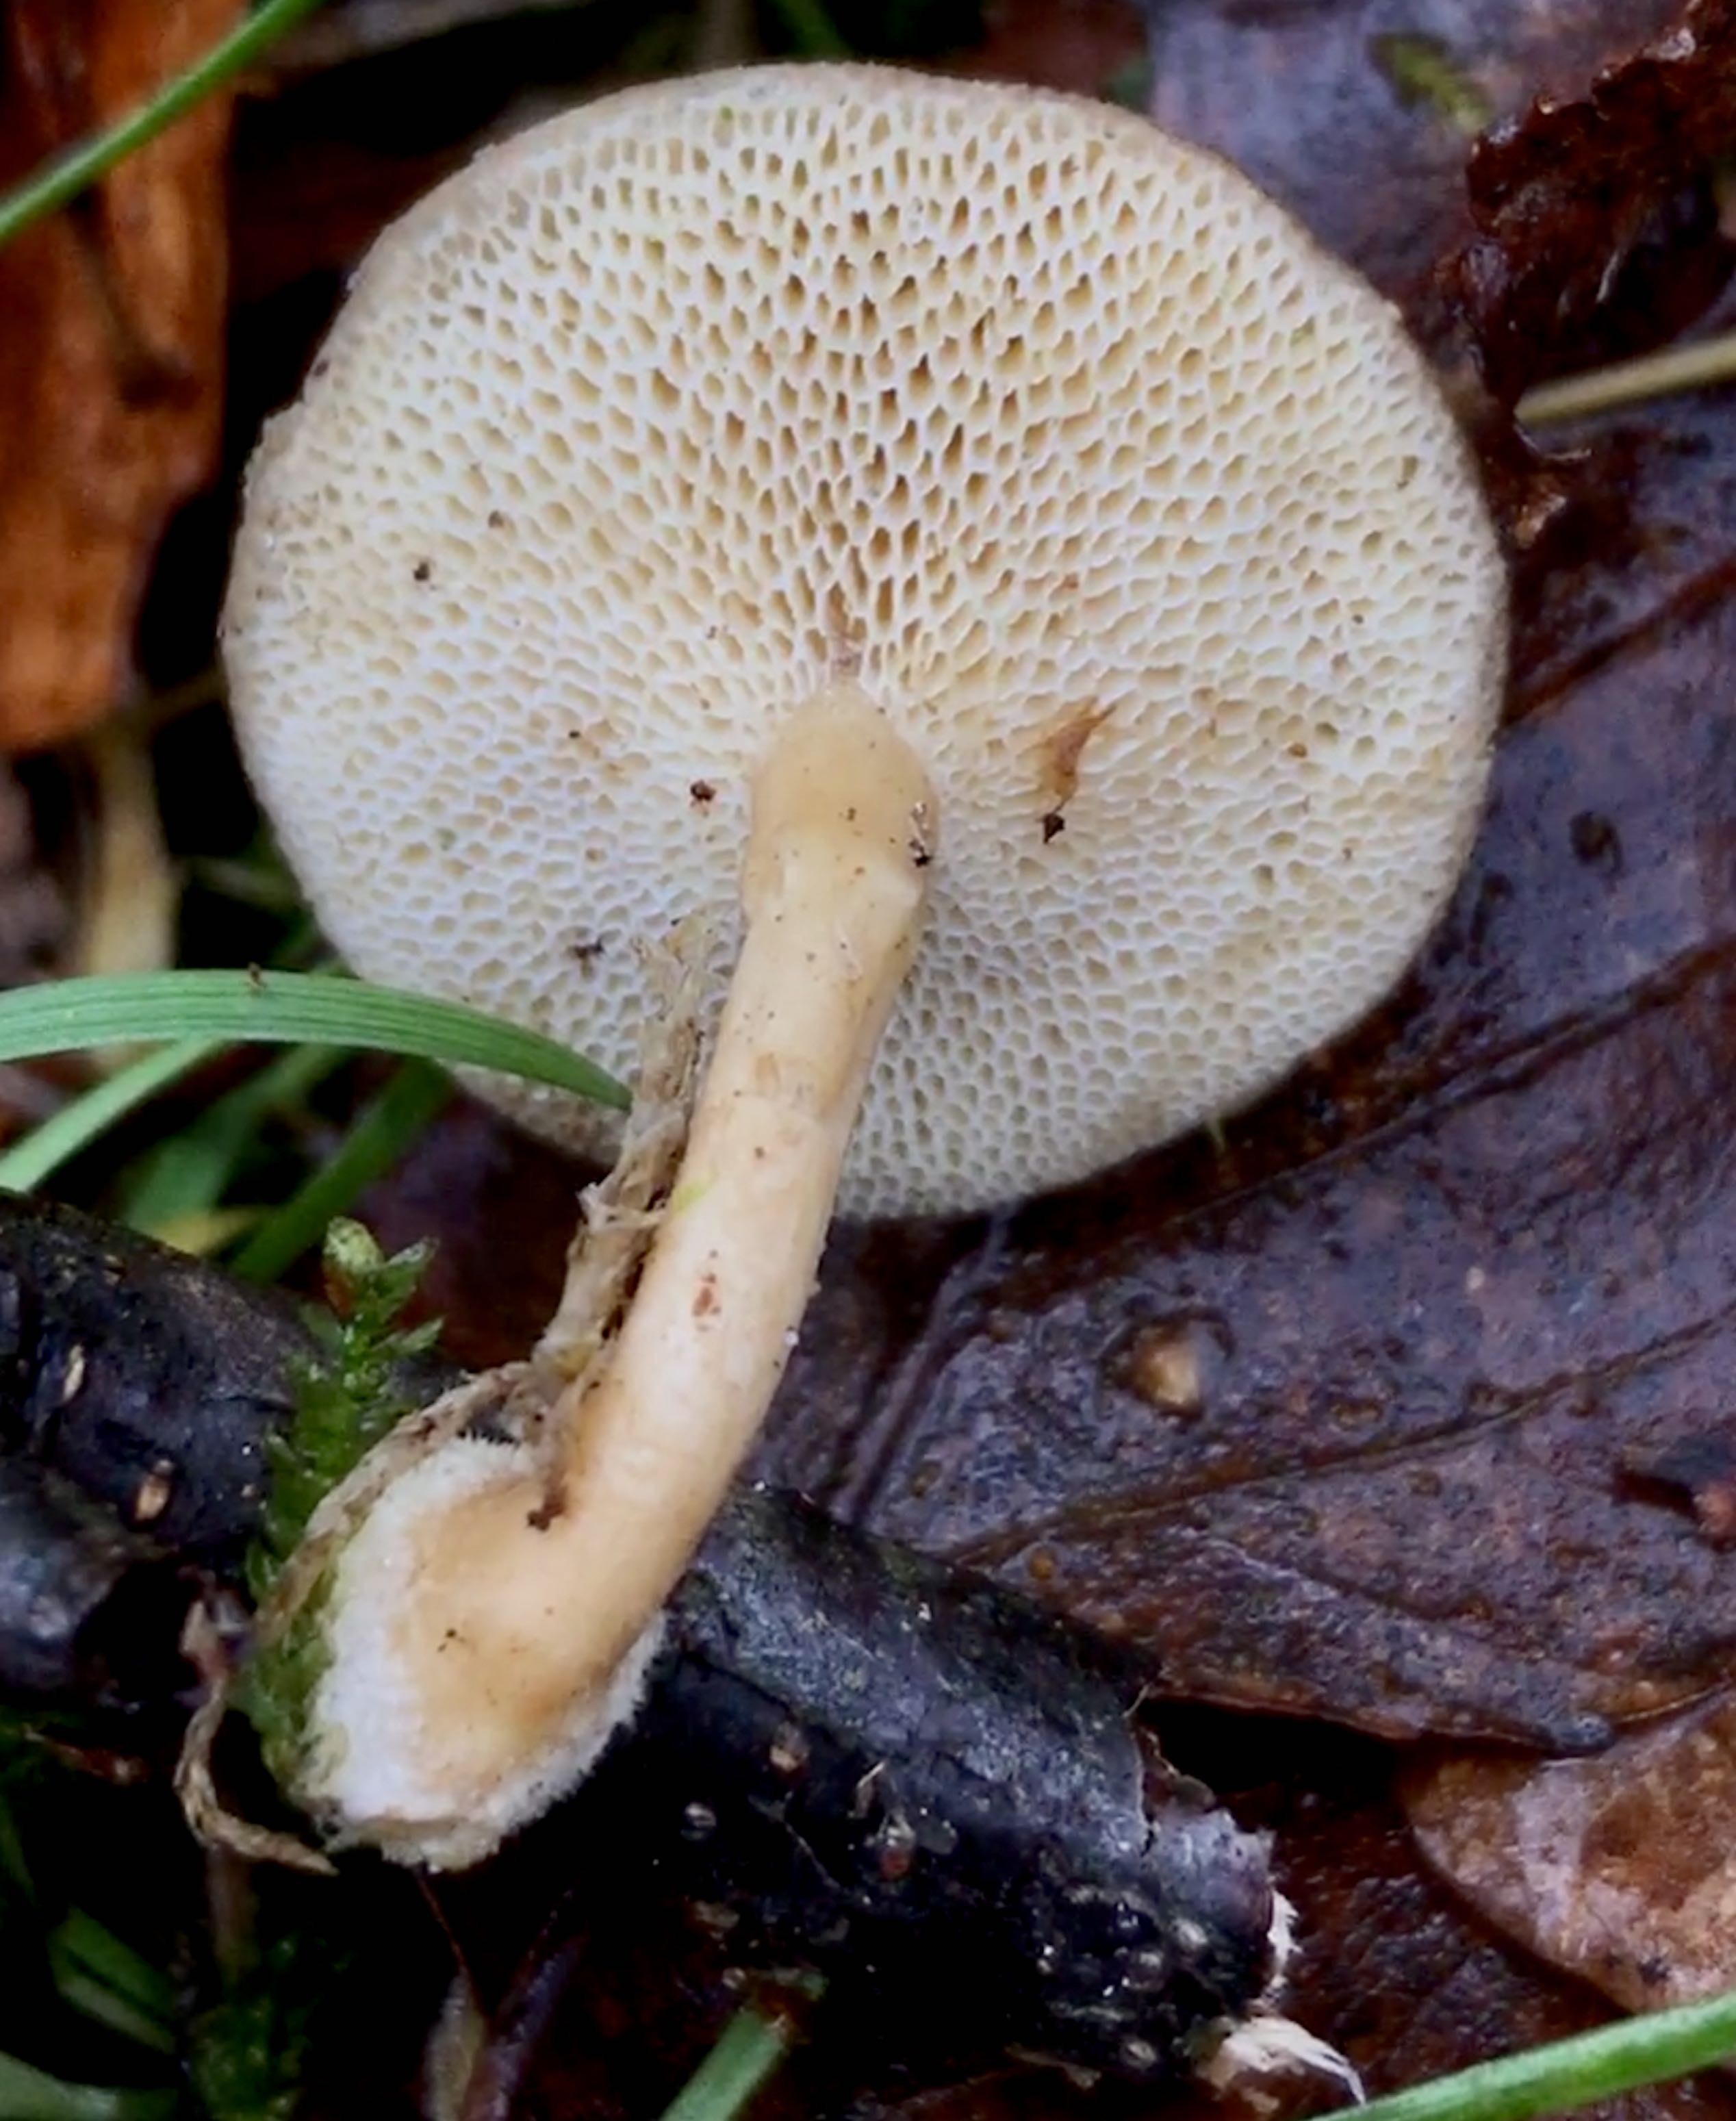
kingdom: Fungi
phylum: Basidiomycota
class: Agaricomycetes
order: Polyporales
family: Polyporaceae
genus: Lentinus
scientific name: Lentinus brumalis
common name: vinter-stilkporesvamp
